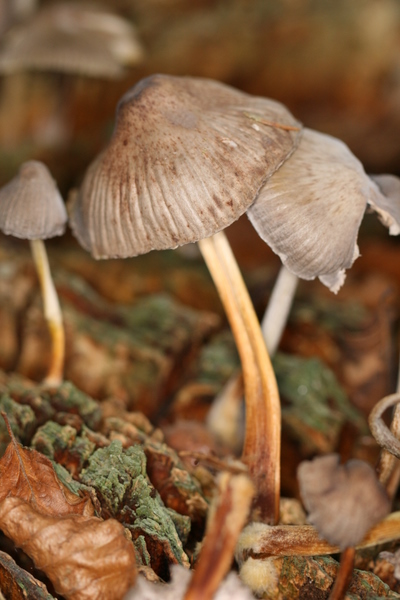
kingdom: Fungi
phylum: Basidiomycota
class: Agaricomycetes
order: Agaricales
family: Mycenaceae
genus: Mycena
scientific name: Mycena galericulata
